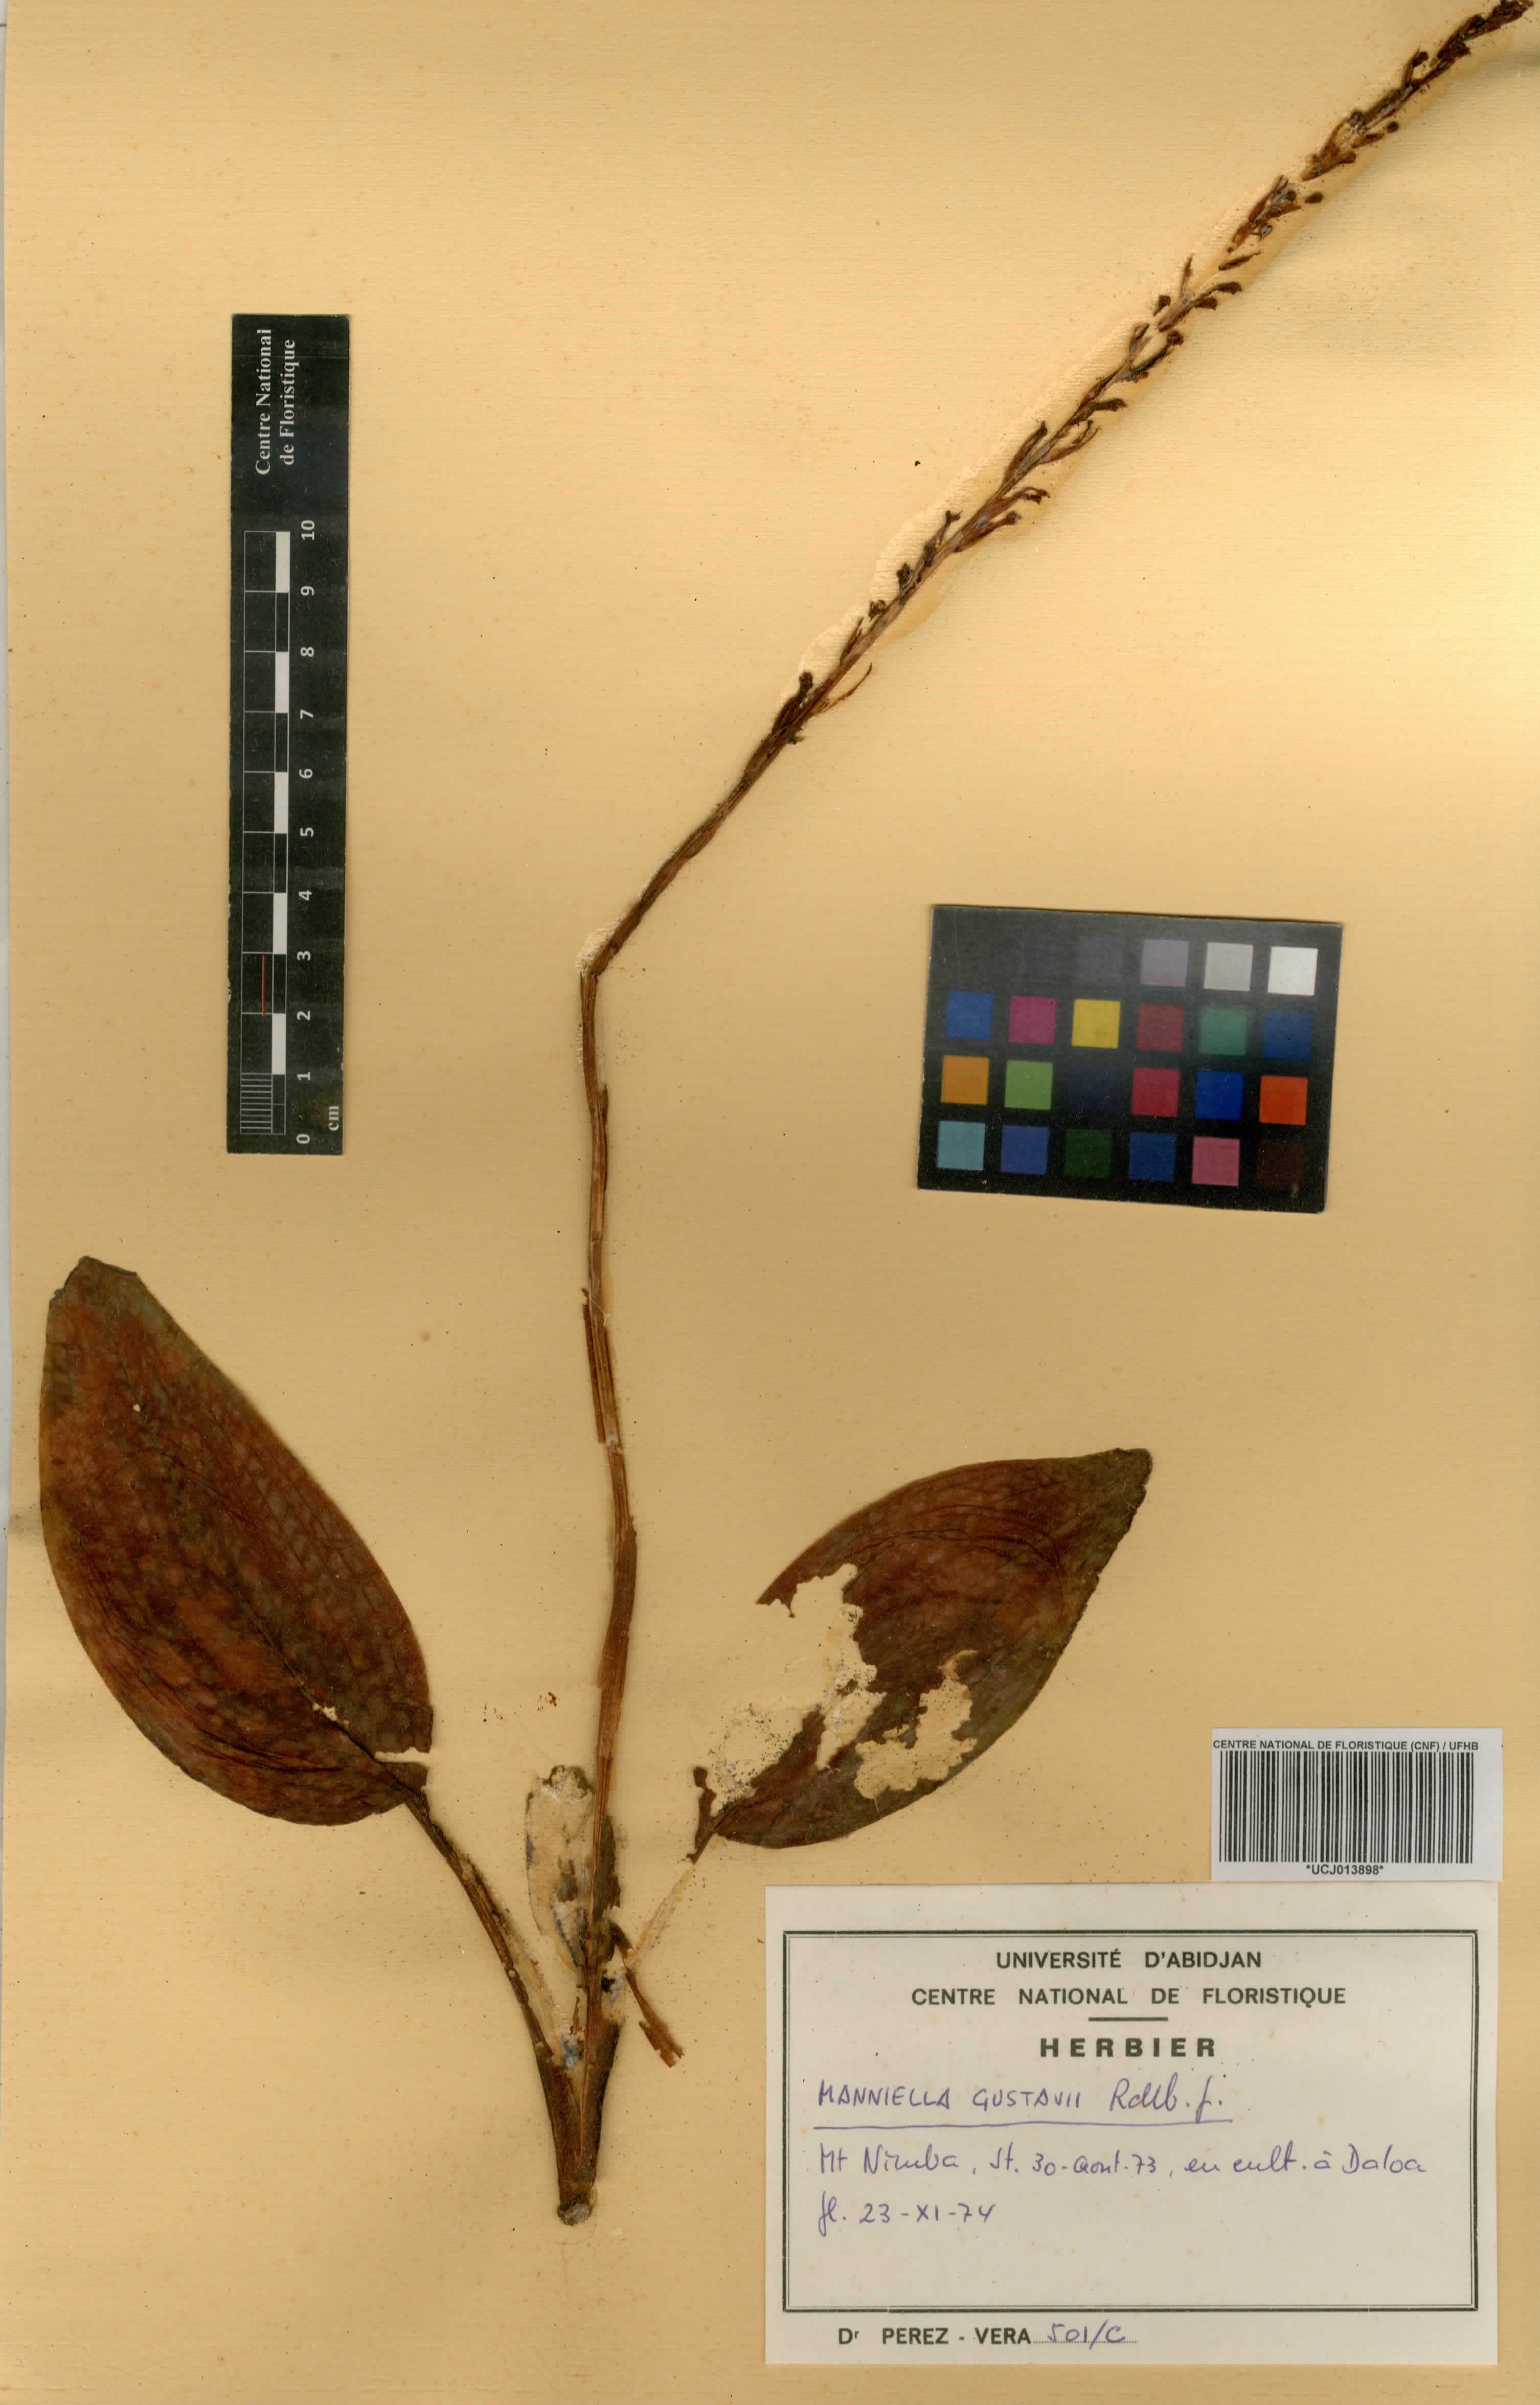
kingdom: Plantae
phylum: Tracheophyta
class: Liliopsida
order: Asparagales
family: Orchidaceae
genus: Manniella
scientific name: Manniella gustavi
